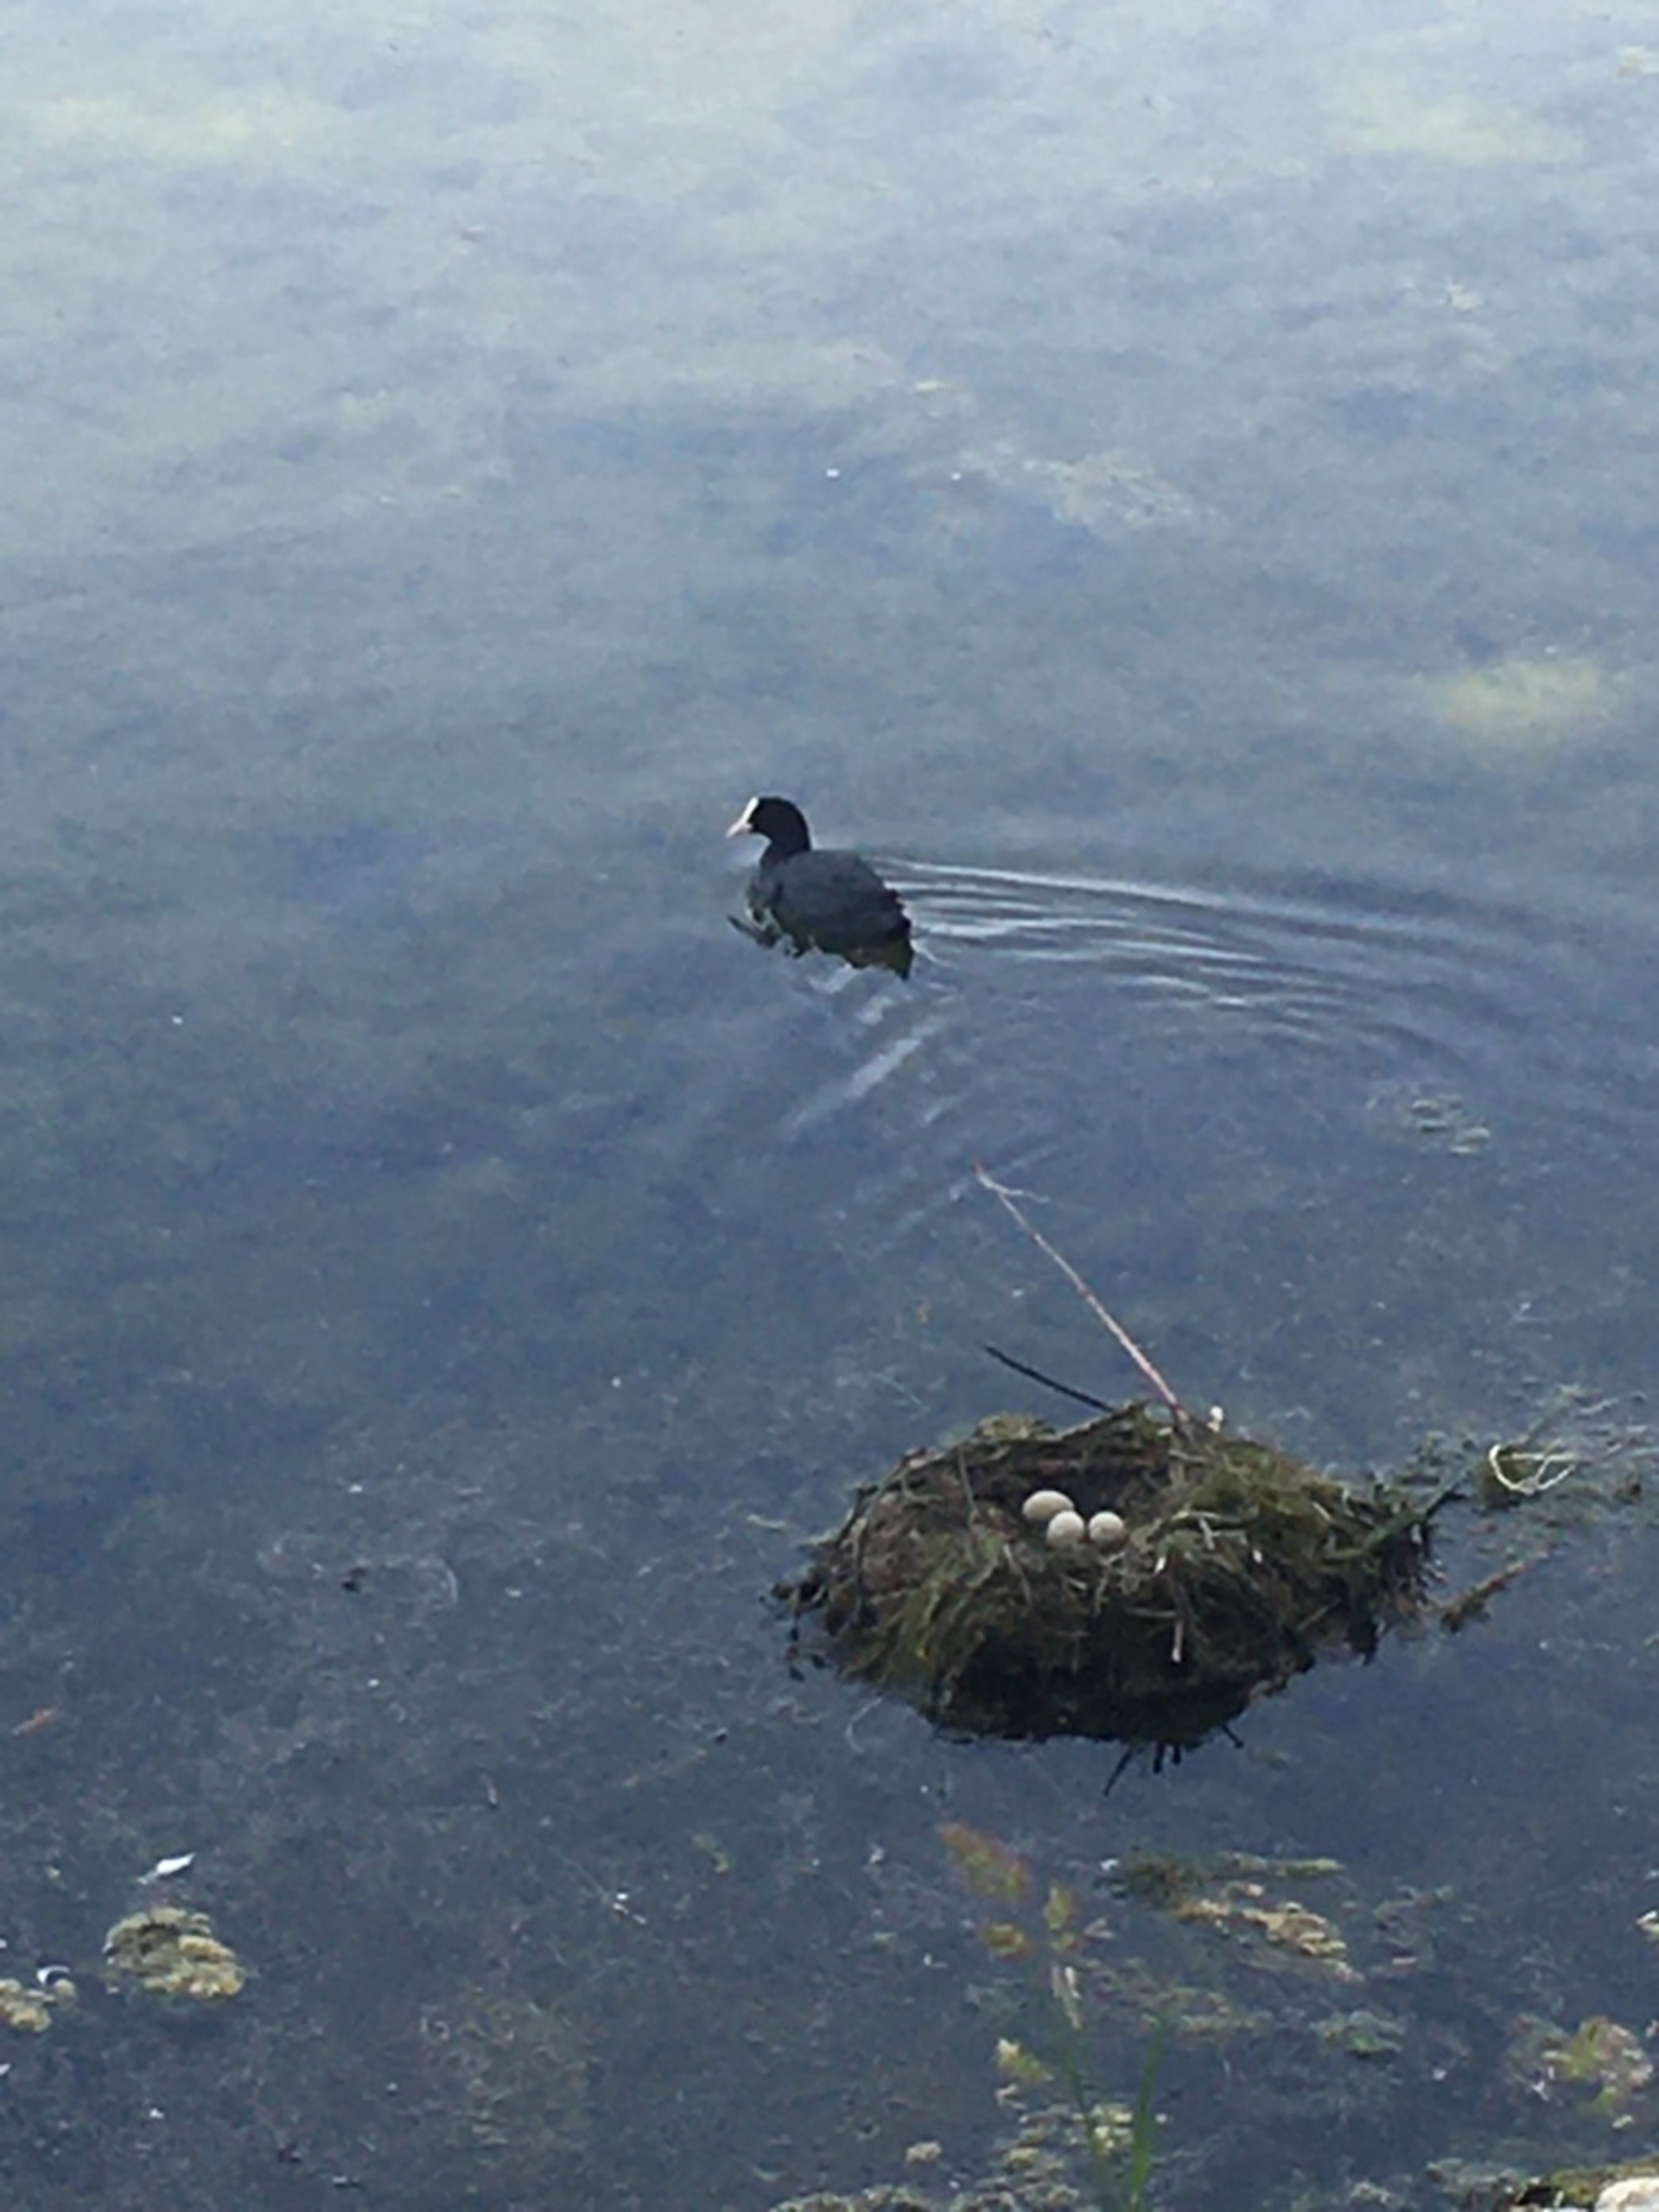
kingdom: Animalia
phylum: Chordata
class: Aves
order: Gruiformes
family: Rallidae
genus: Fulica
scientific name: Fulica atra
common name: Blishøne
